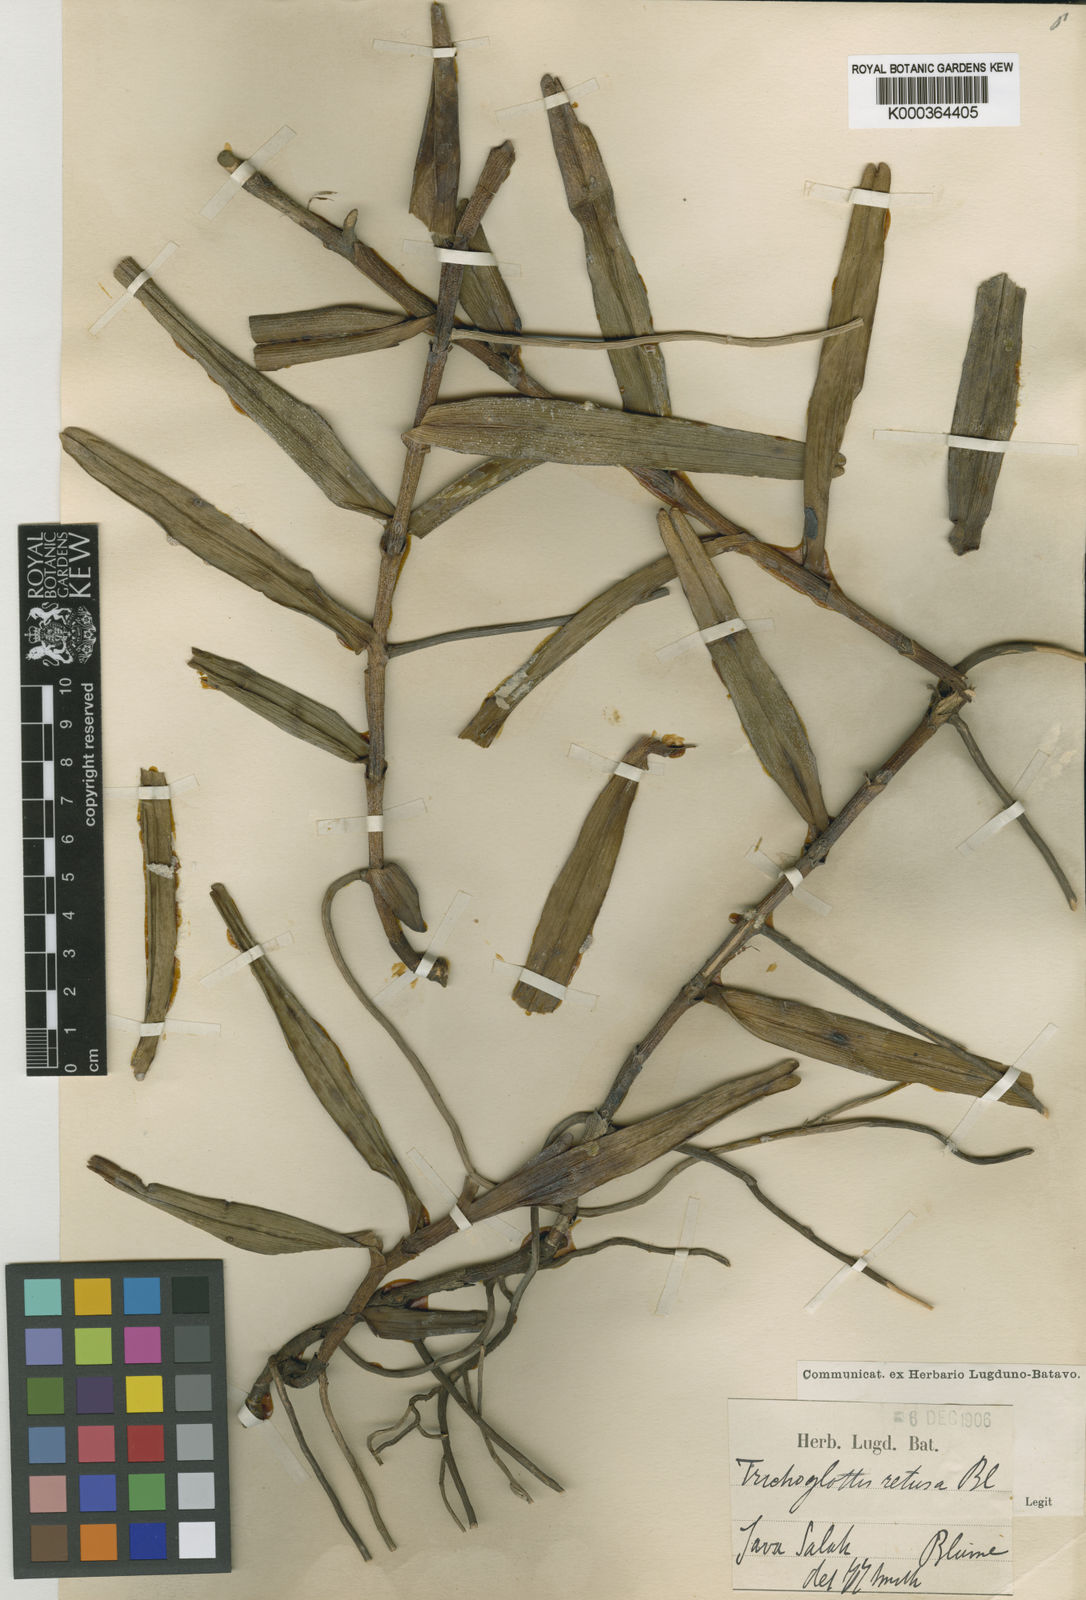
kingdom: Plantae
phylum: Tracheophyta
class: Liliopsida
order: Asparagales
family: Orchidaceae
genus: Trichoglottis
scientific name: Trichoglottis retusa
